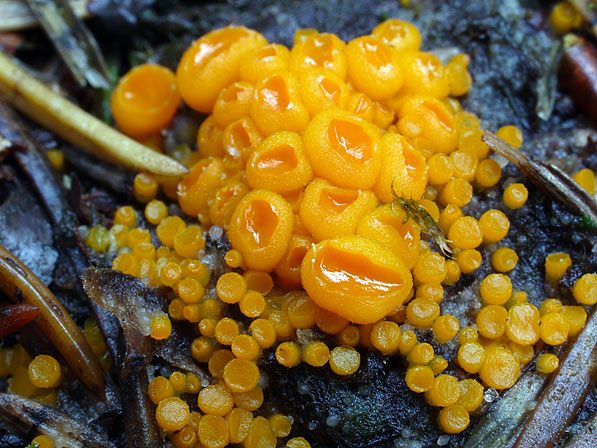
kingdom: Fungi
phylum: Ascomycota
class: Pezizomycetes
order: Pezizales
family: Pyronemataceae
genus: Byssonectria
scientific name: Byssonectria terrestris
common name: hjortebæger
